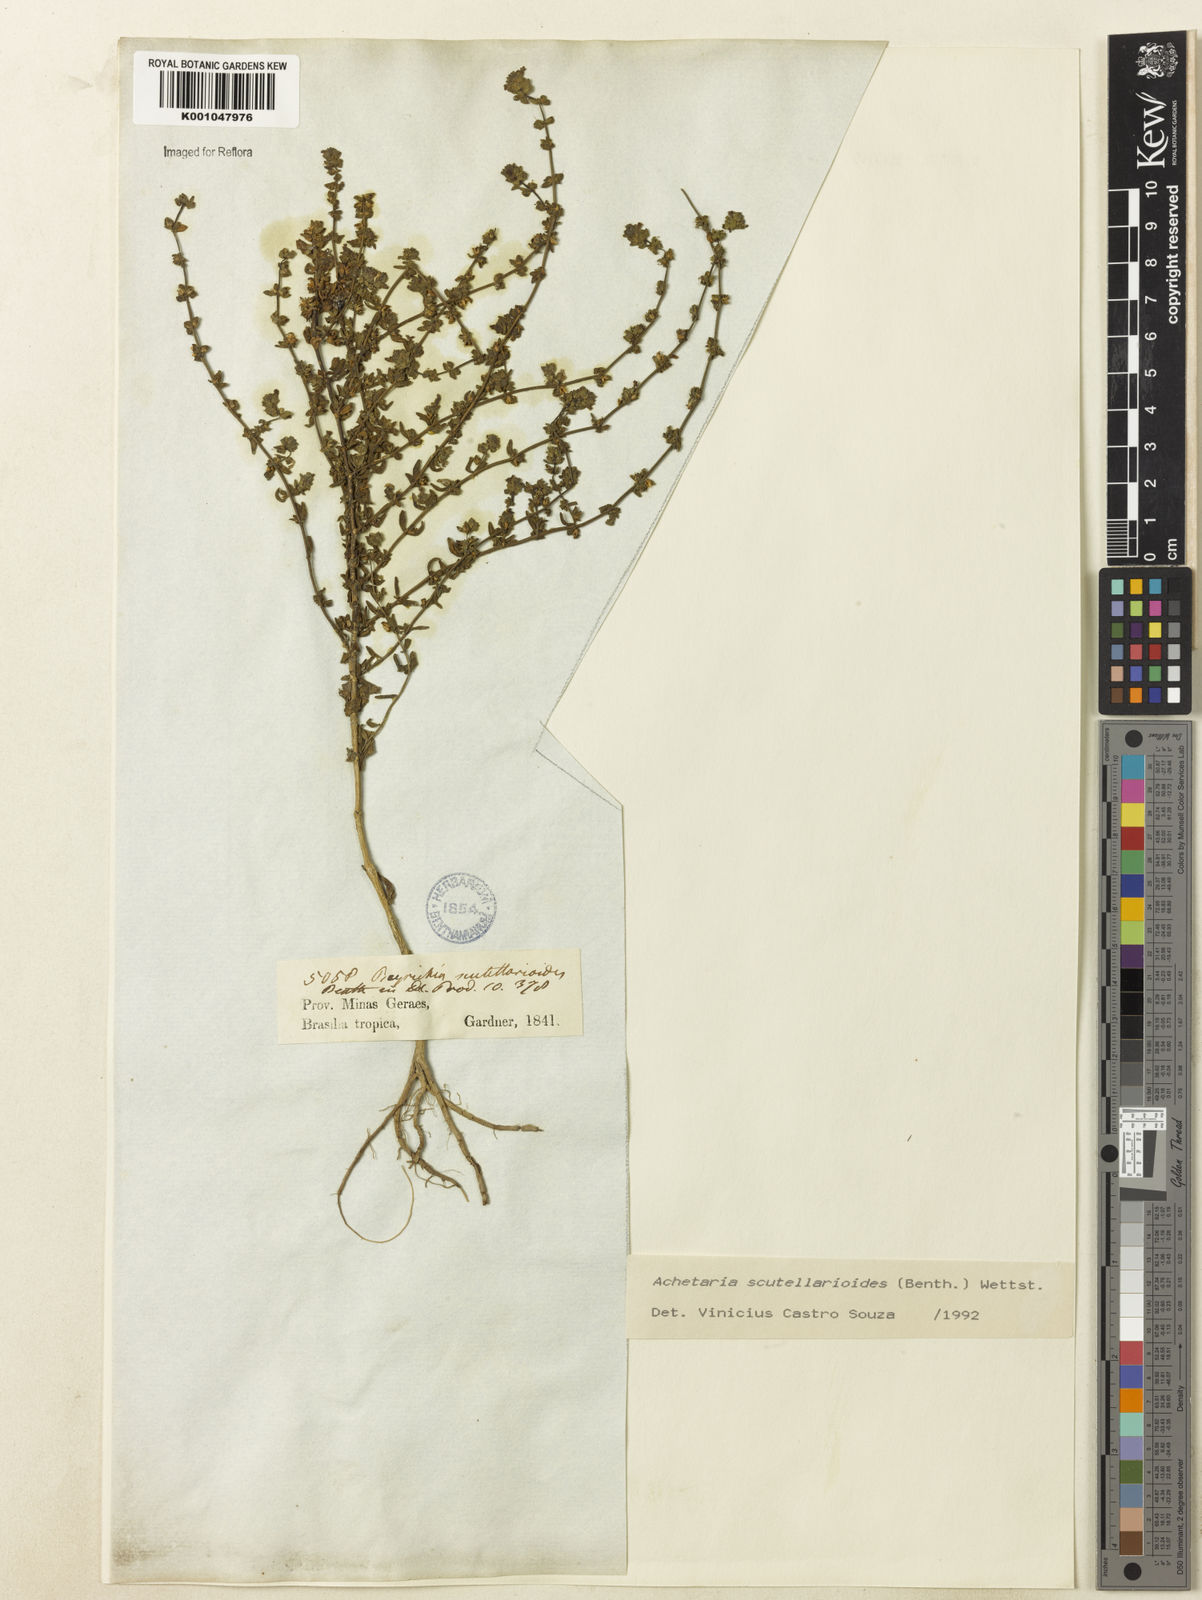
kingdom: Plantae
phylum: Tracheophyta
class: Magnoliopsida
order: Lamiales
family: Plantaginaceae
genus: Matourea
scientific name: Matourea scutellarioides
